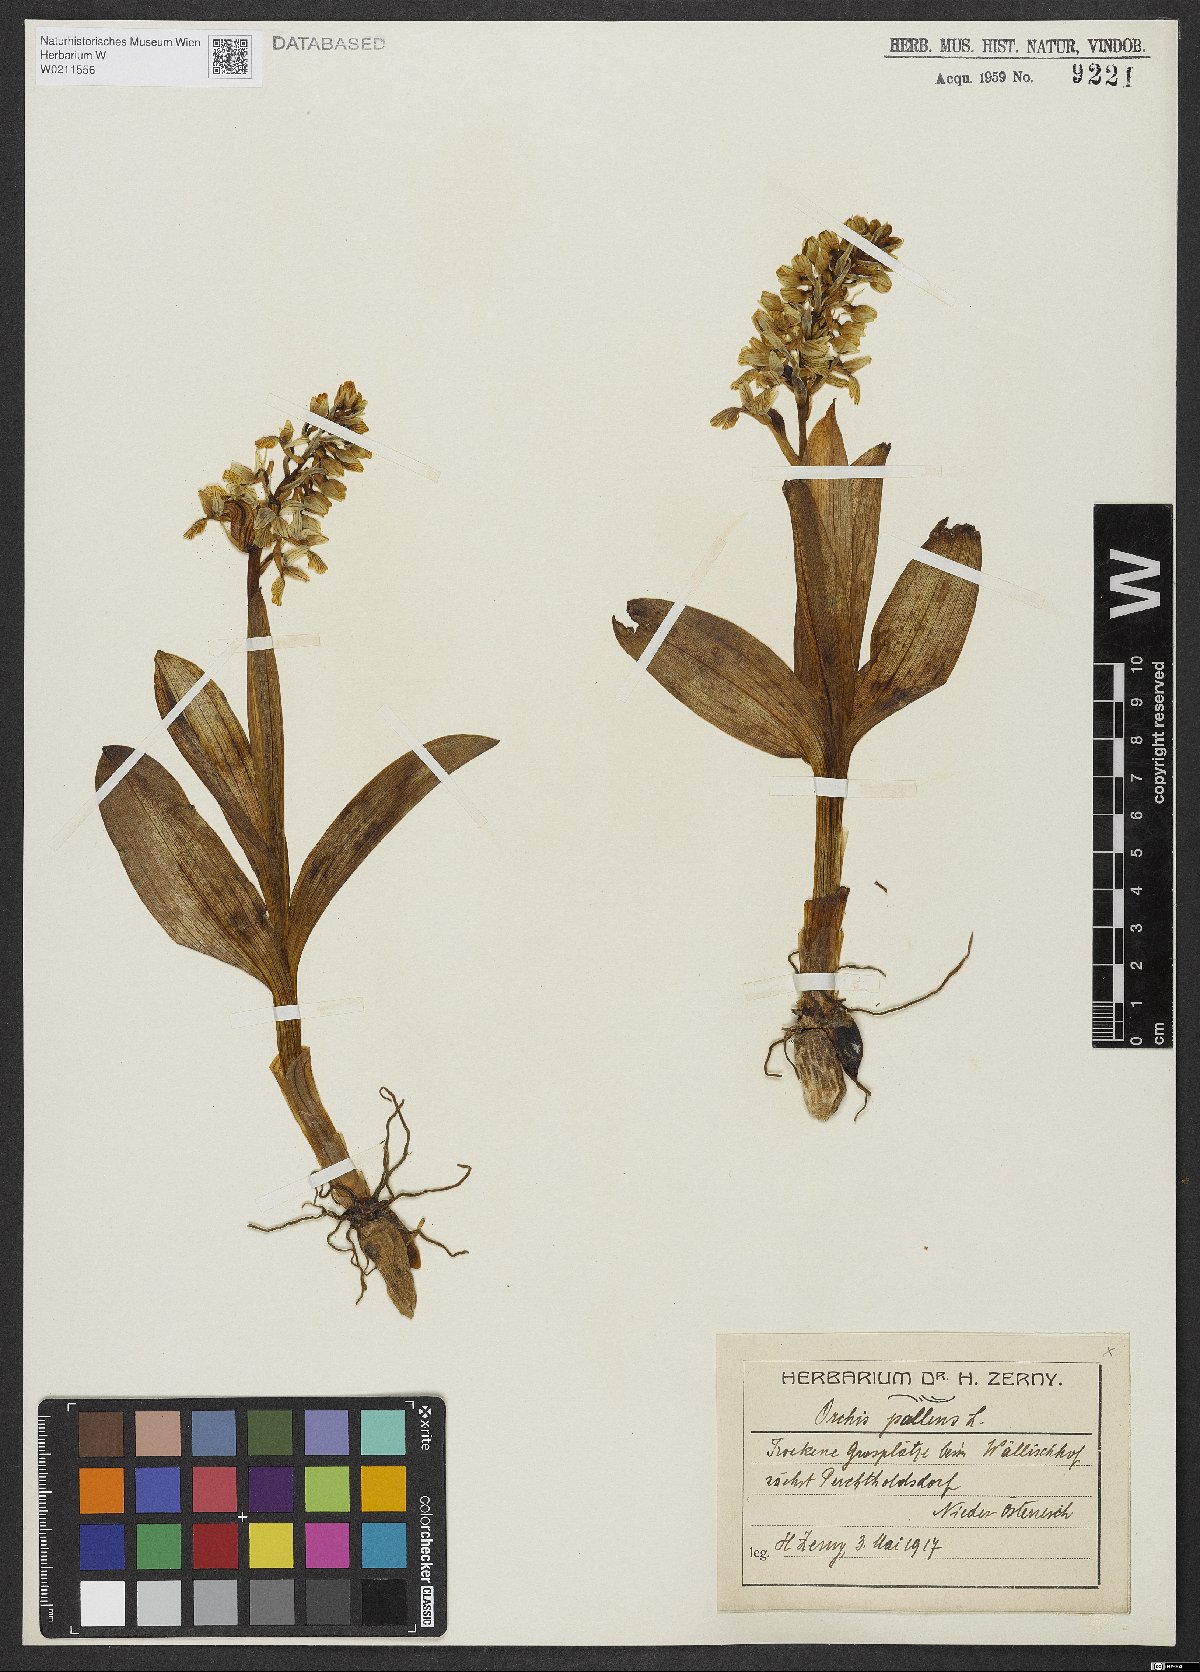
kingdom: Plantae
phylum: Tracheophyta
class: Liliopsida
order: Asparagales
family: Orchidaceae
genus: Orchis
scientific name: Orchis pallens
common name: Pale-flowered orchid
